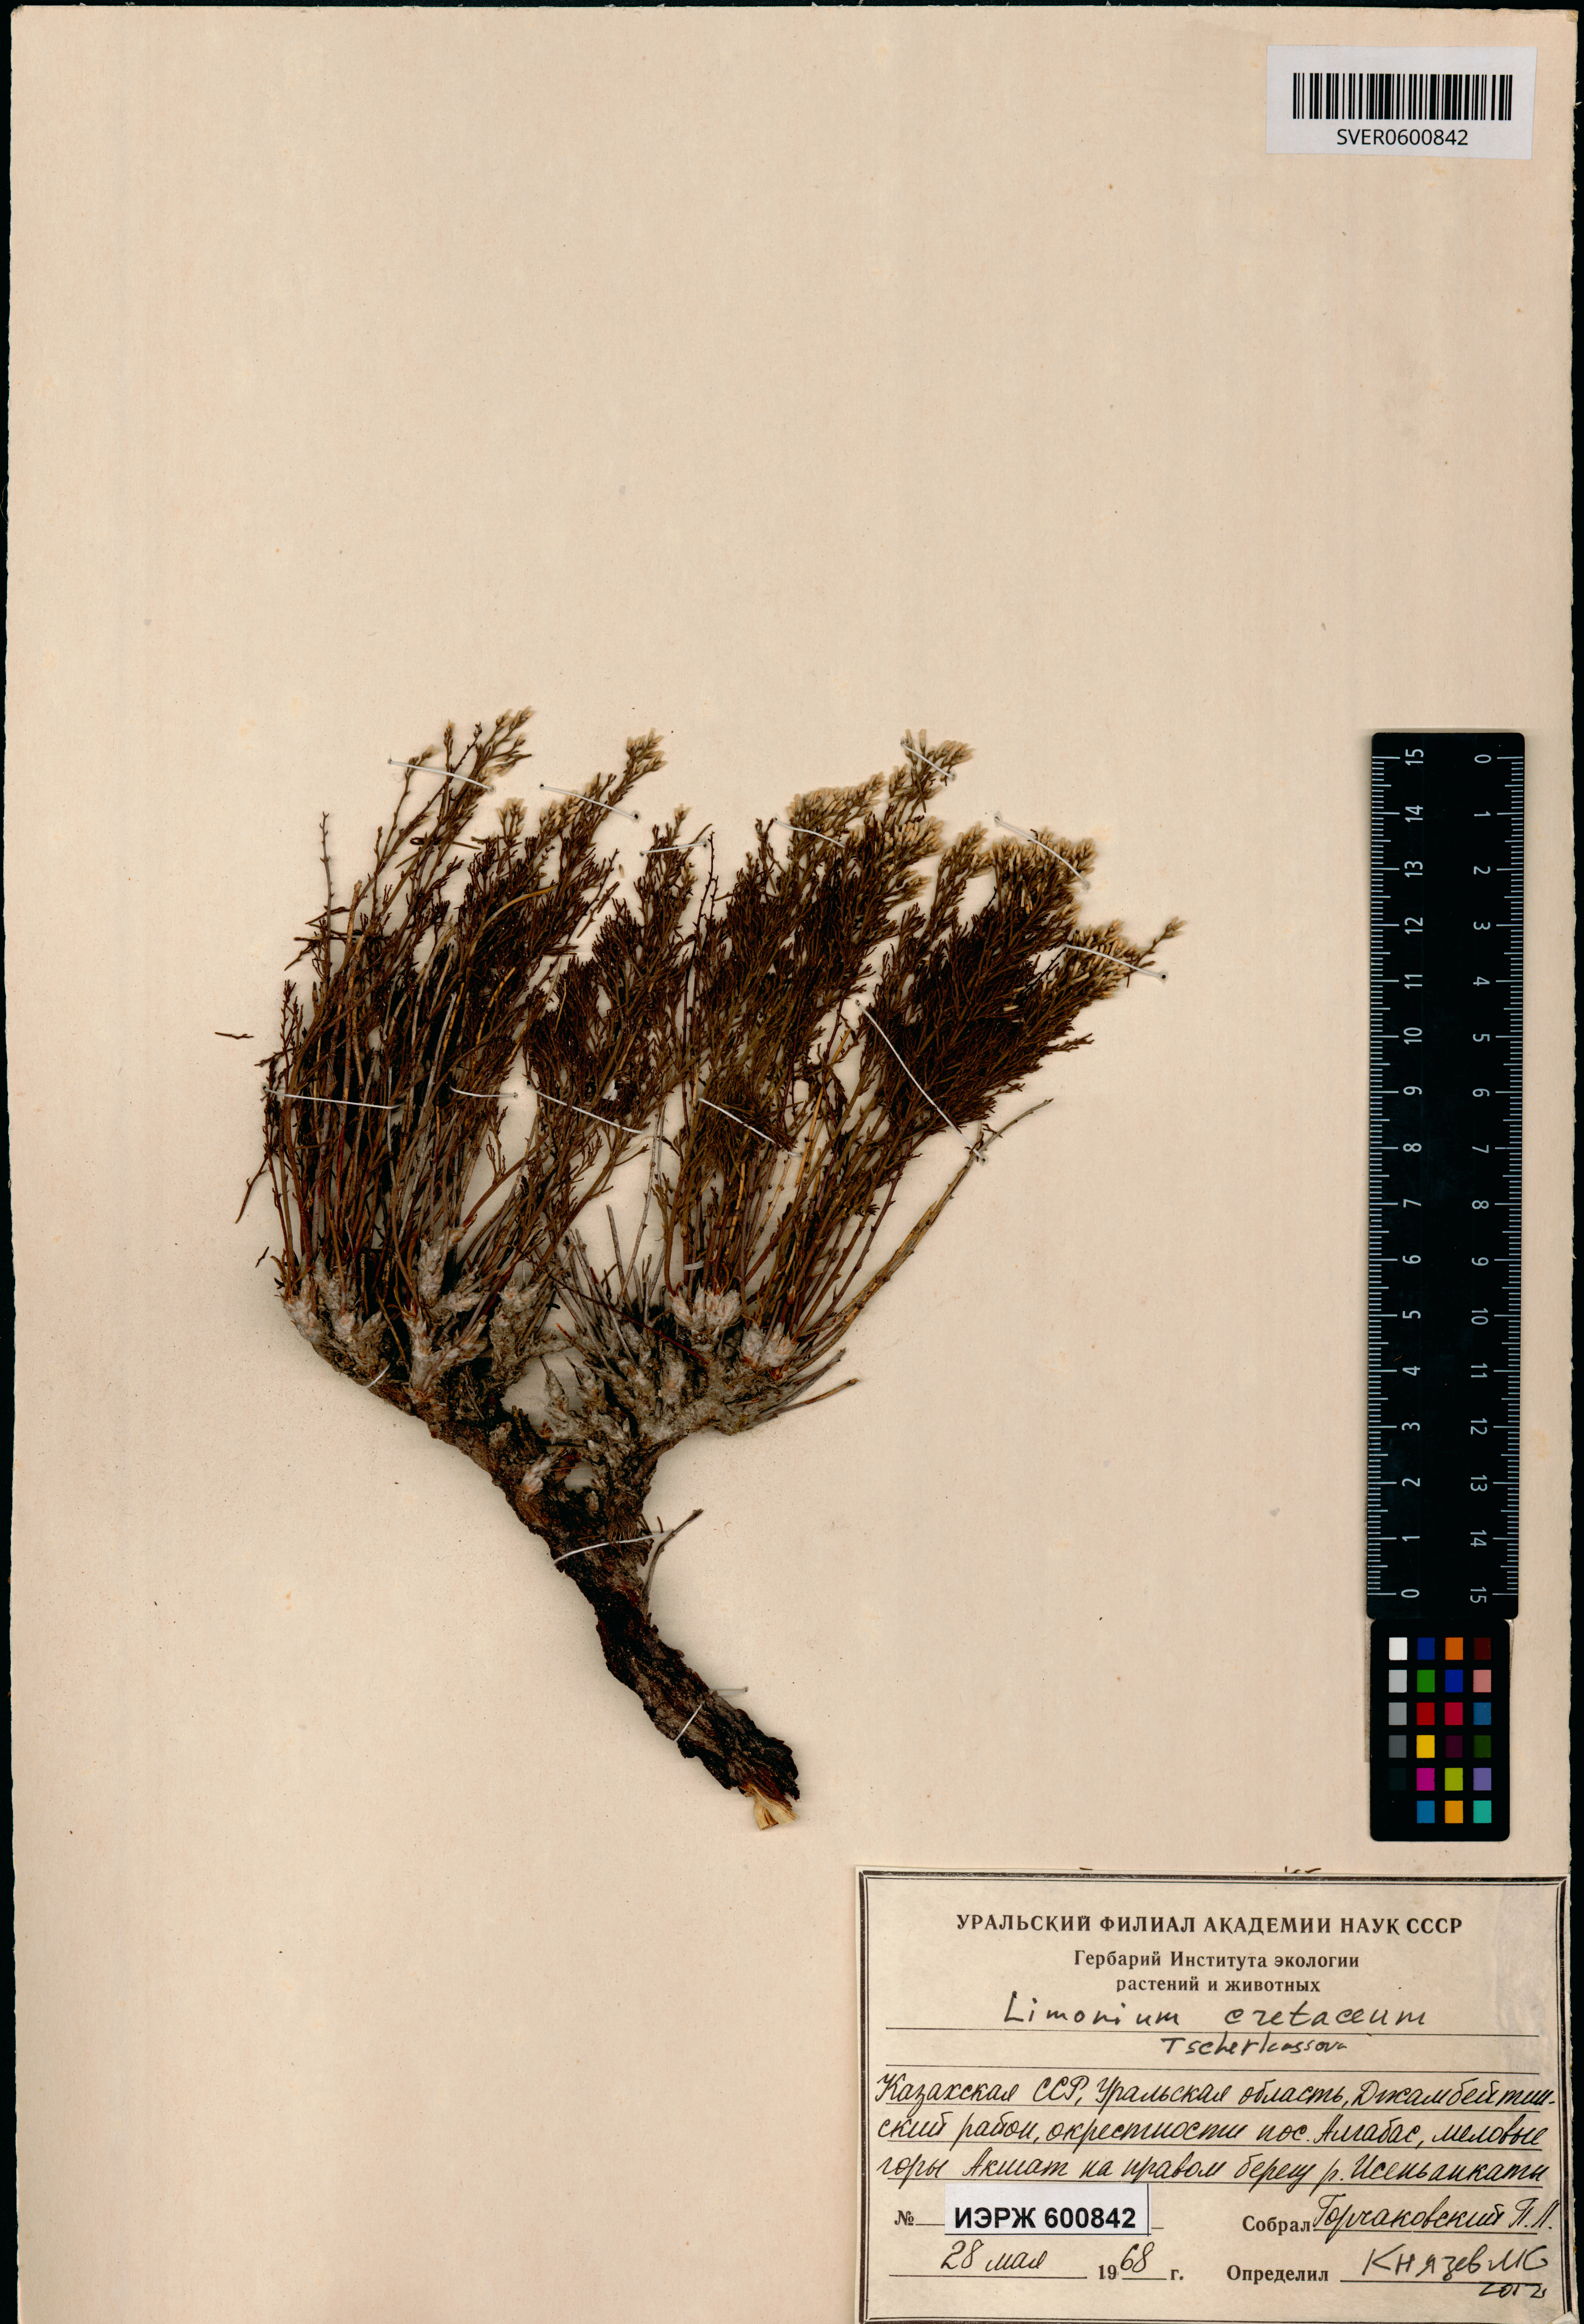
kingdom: Plantae
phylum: Tracheophyta
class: Magnoliopsida
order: Caryophyllales
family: Plumbaginaceae
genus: Limonium
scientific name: Limonium cretaceum
